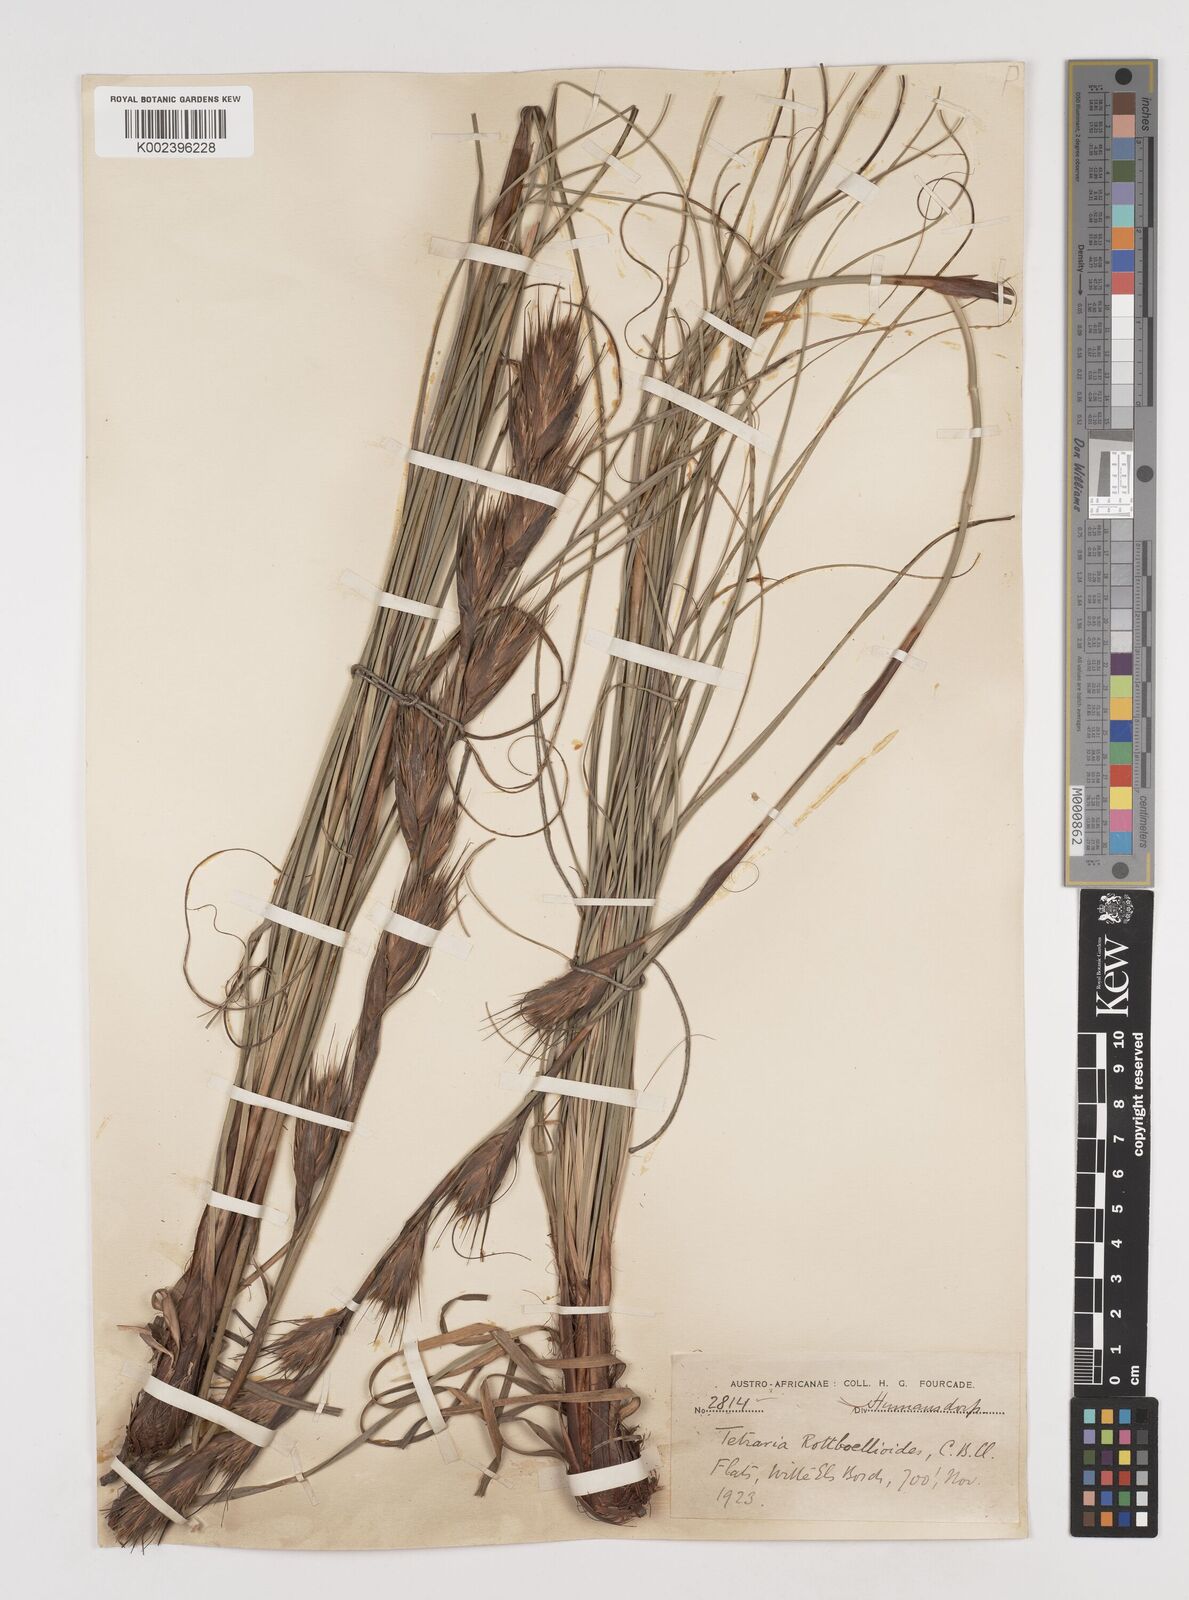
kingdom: Plantae
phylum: Tracheophyta
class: Liliopsida
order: Poales
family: Cyperaceae
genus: Tetraria
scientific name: Tetraria bromoides
